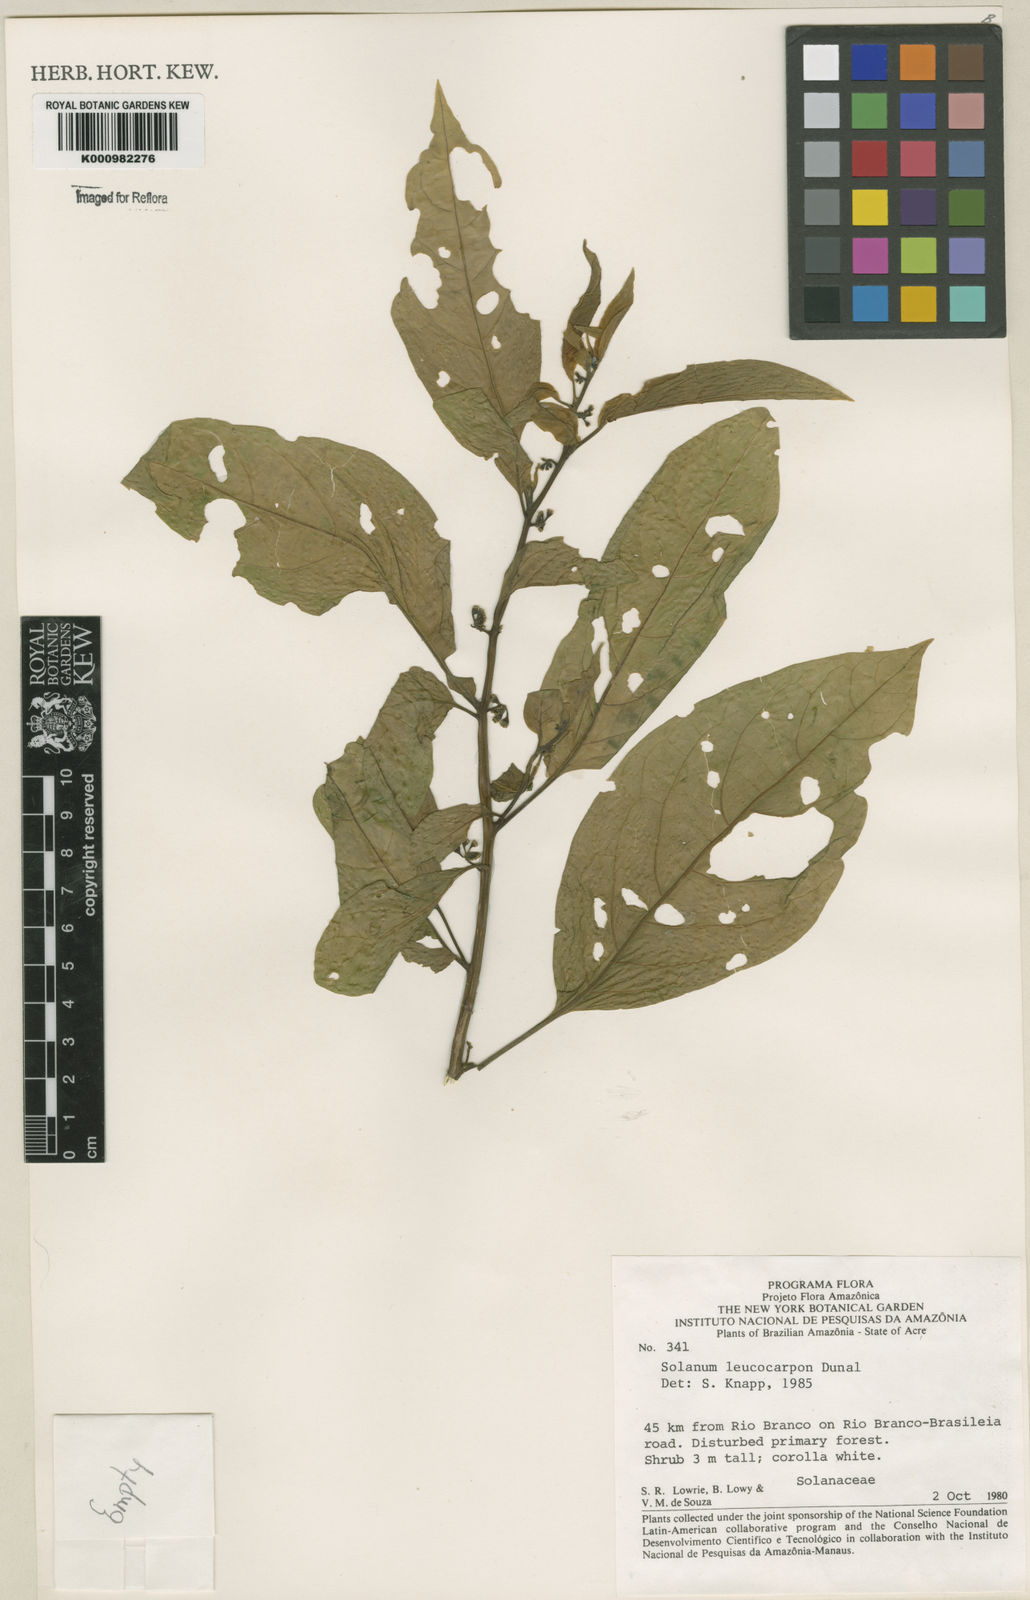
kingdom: Plantae
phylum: Tracheophyta
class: Magnoliopsida
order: Solanales
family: Solanaceae
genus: Solanum
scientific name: Solanum leucocarpon
